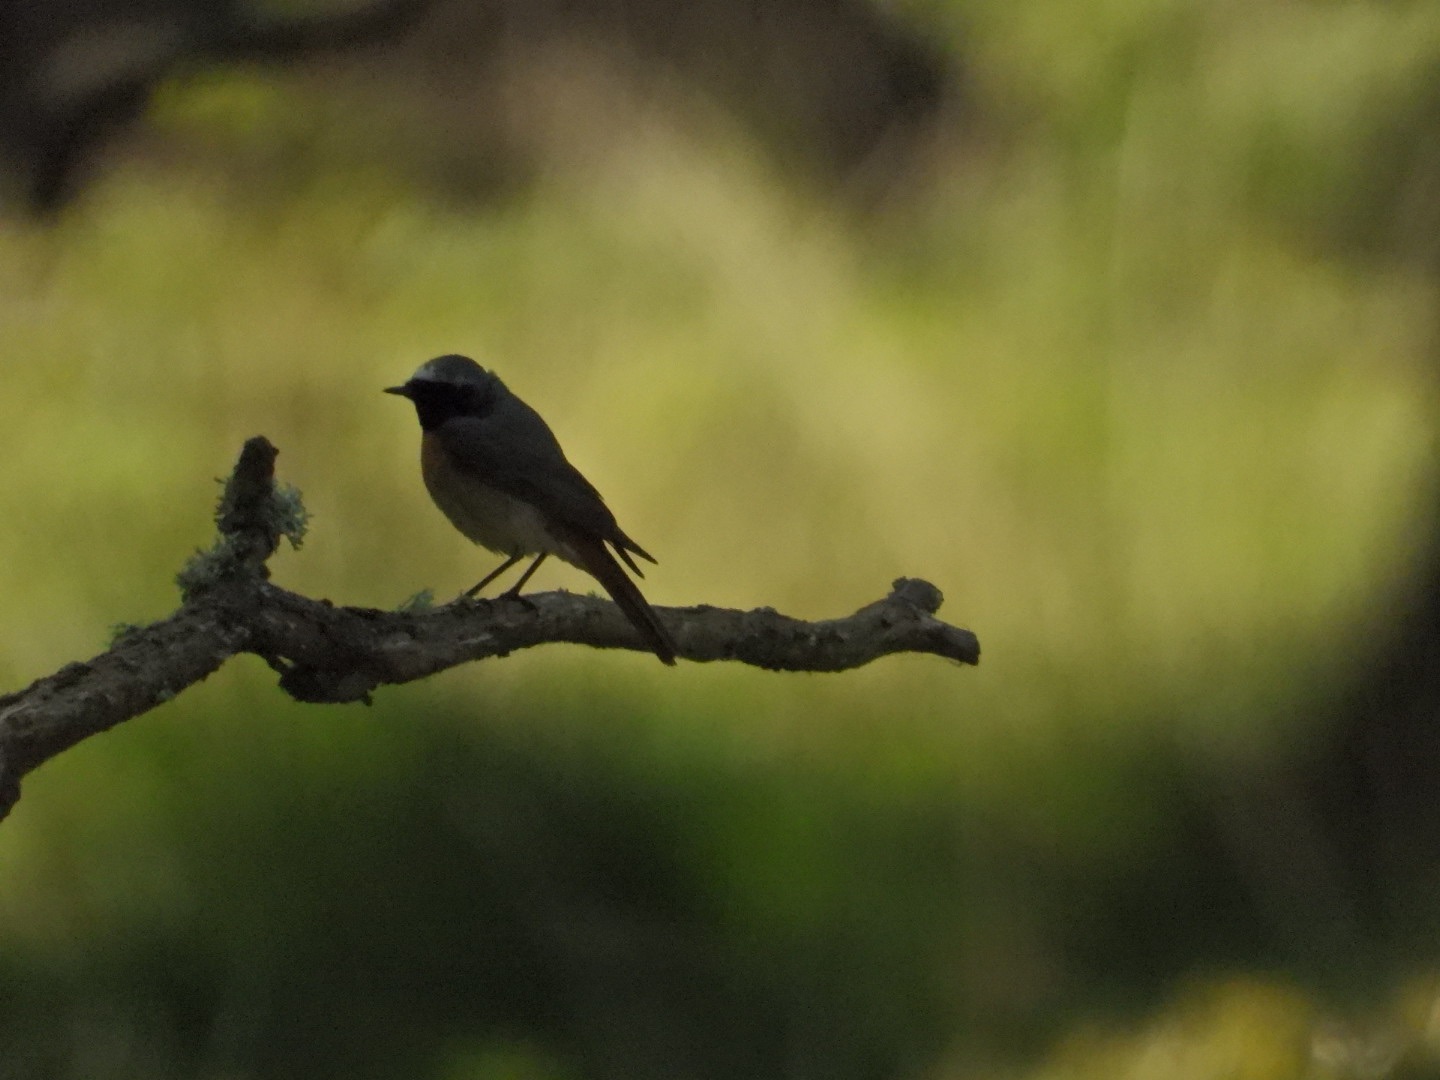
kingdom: Animalia
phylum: Chordata
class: Aves
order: Passeriformes
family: Muscicapidae
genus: Phoenicurus
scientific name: Phoenicurus phoenicurus
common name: Rødstjert
